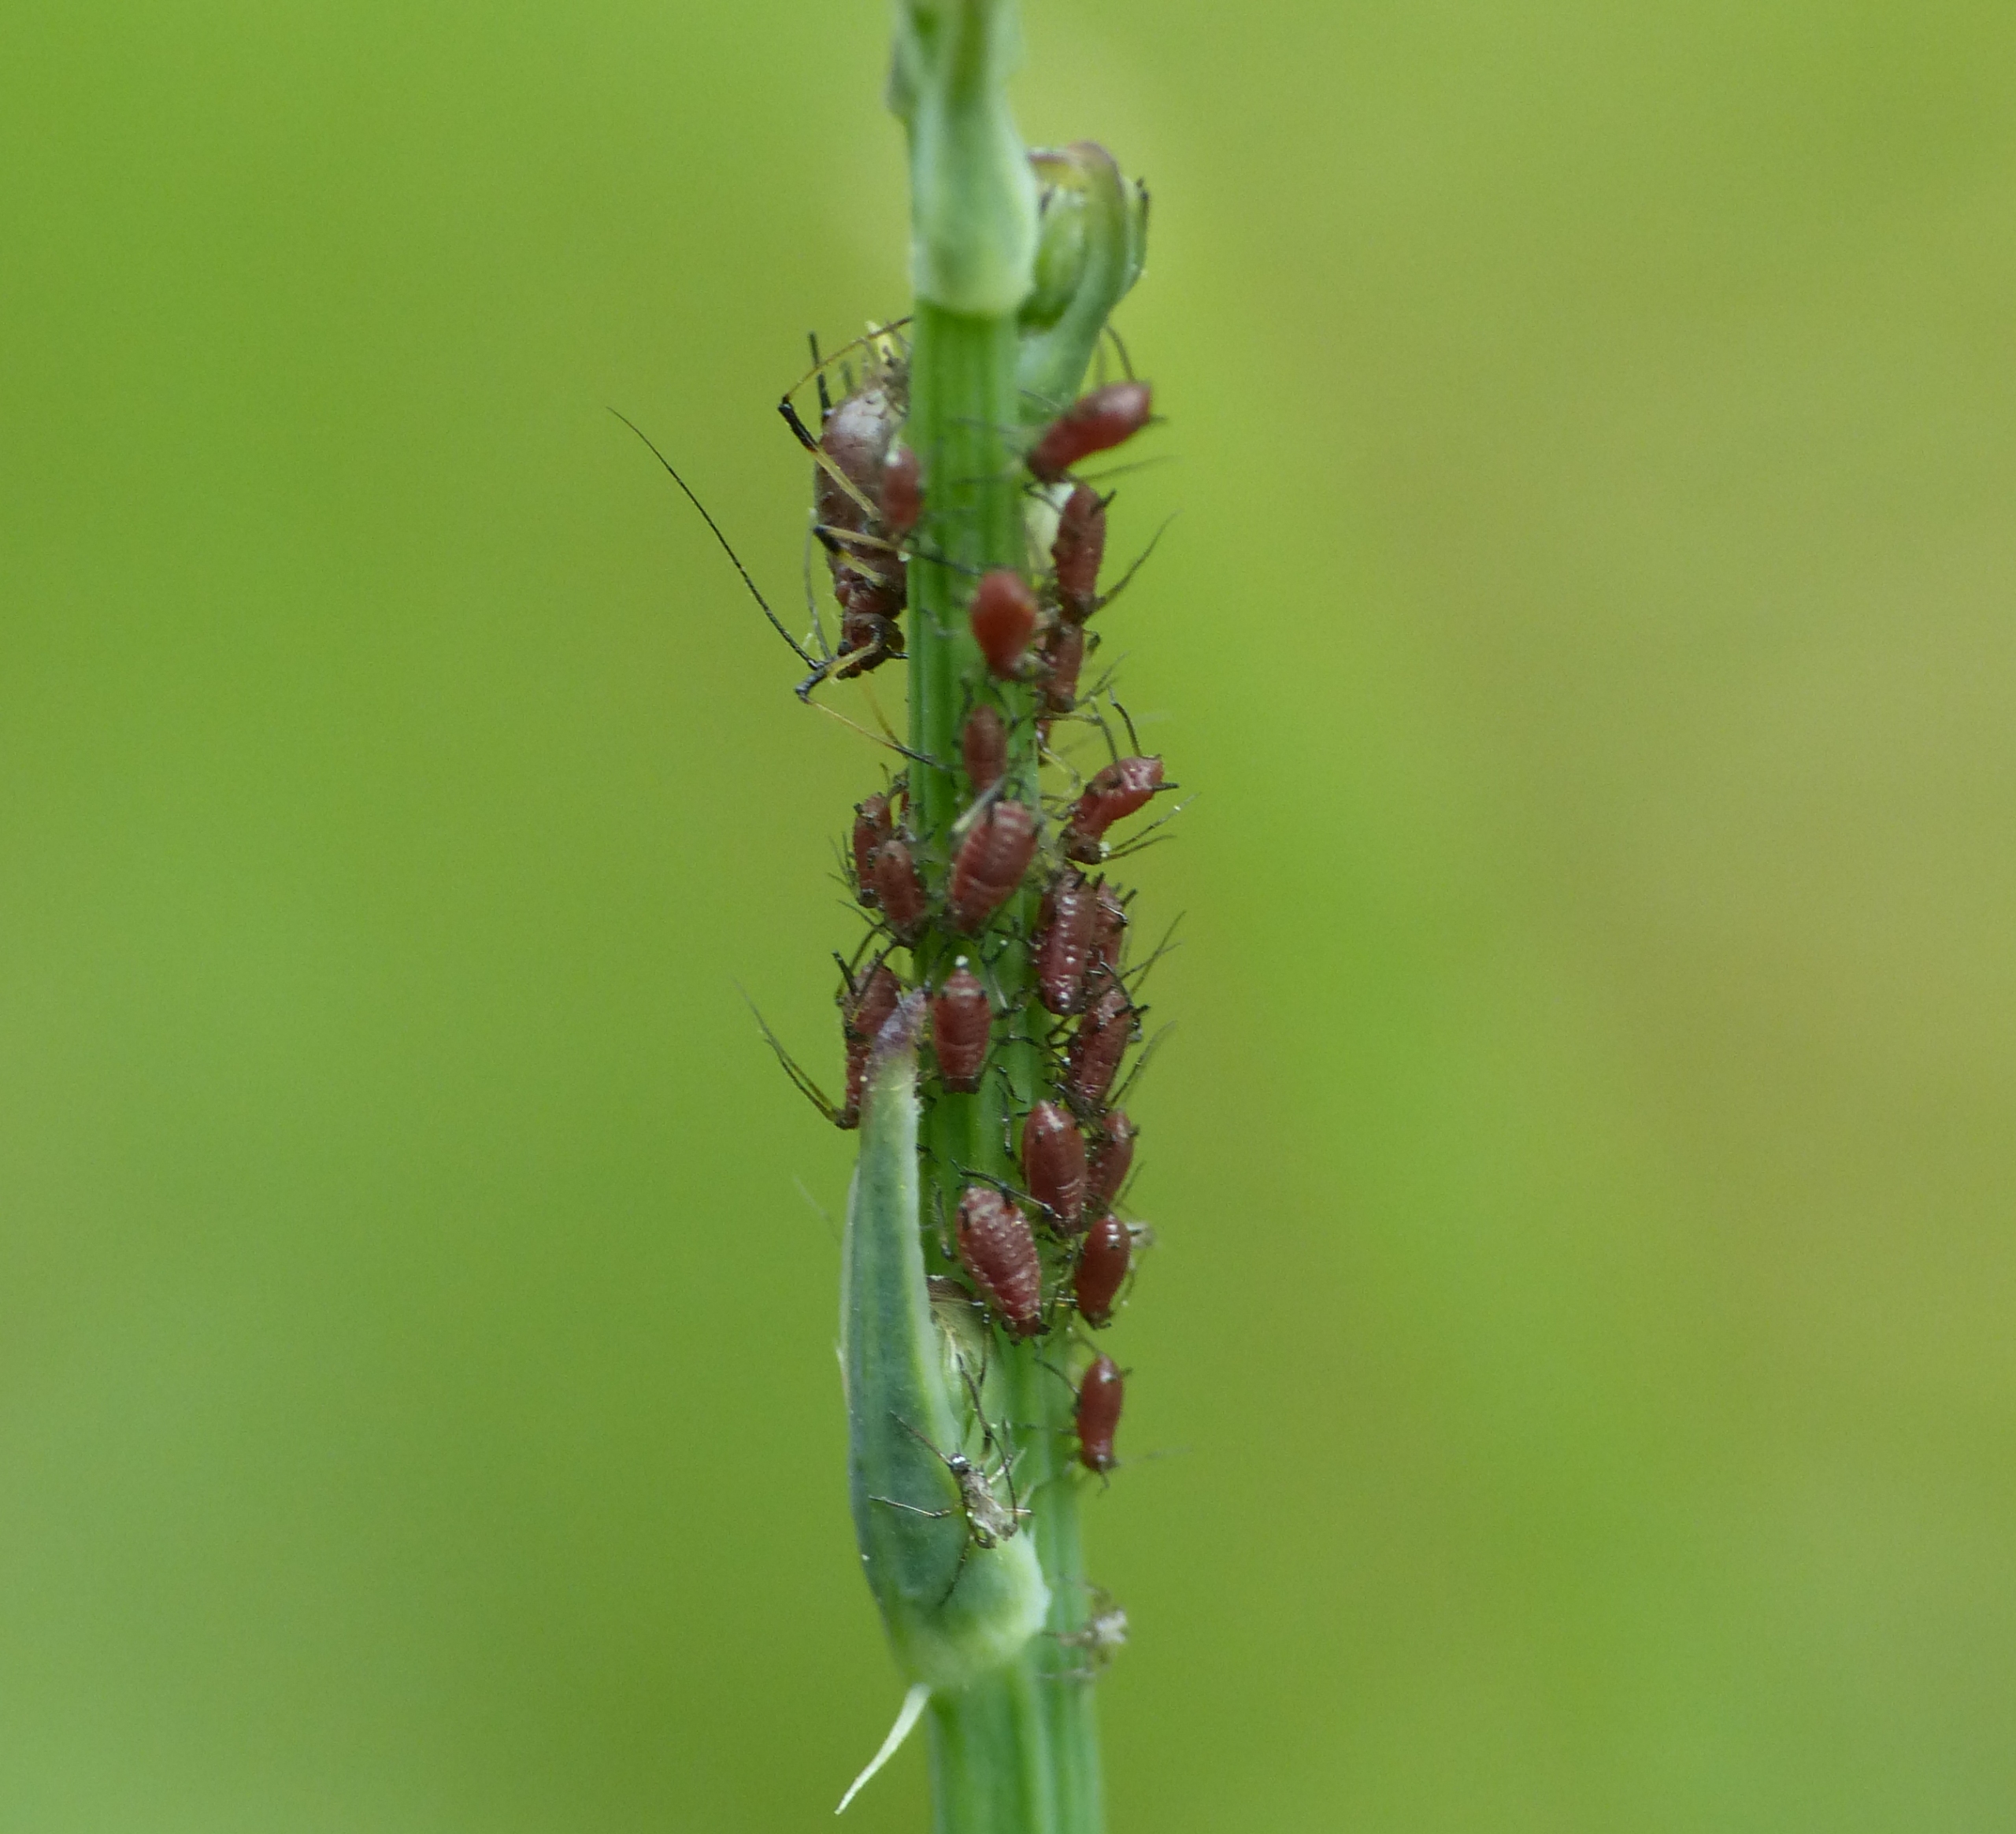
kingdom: Animalia
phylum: Arthropoda
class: Insecta
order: Hemiptera
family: Aphididae
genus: Uroleucon
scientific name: Uroleucon hypochoeridis
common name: Brun kongepenbladlus
